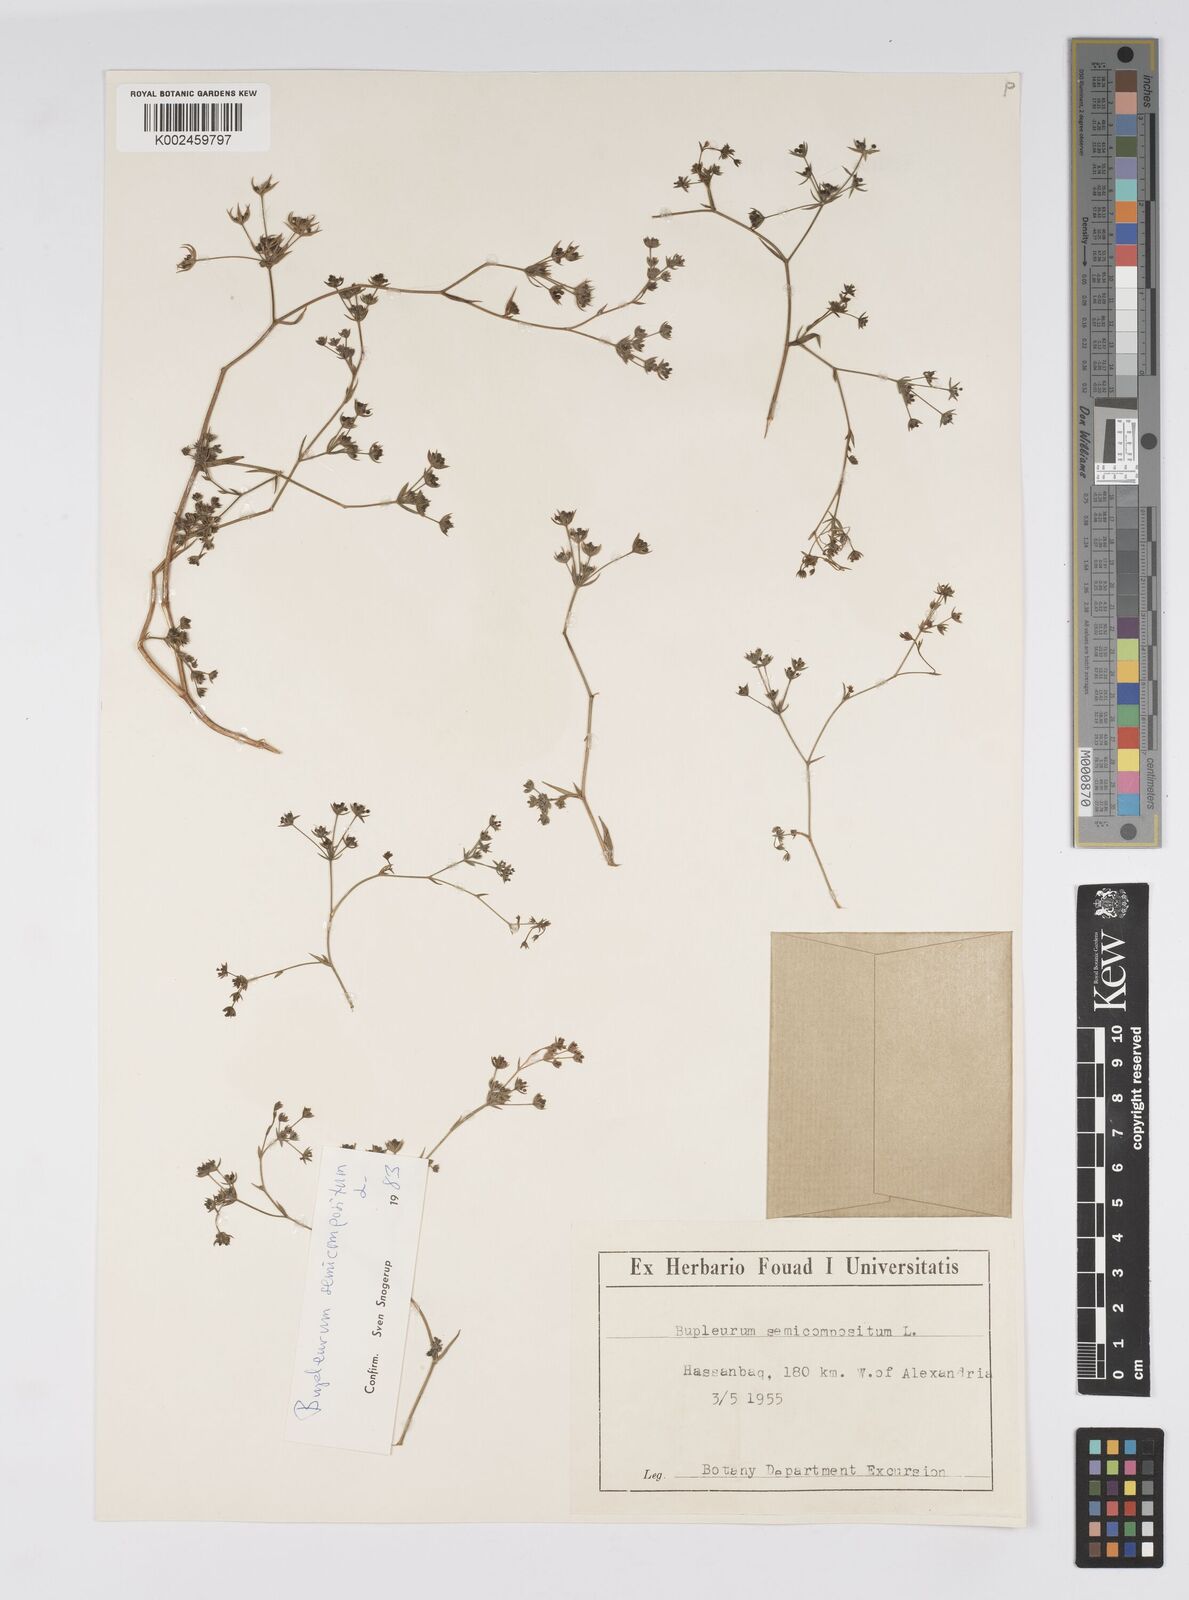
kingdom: Plantae
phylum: Tracheophyta
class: Magnoliopsida
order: Apiales
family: Apiaceae
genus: Bupleurum
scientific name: Bupleurum semicompositum
